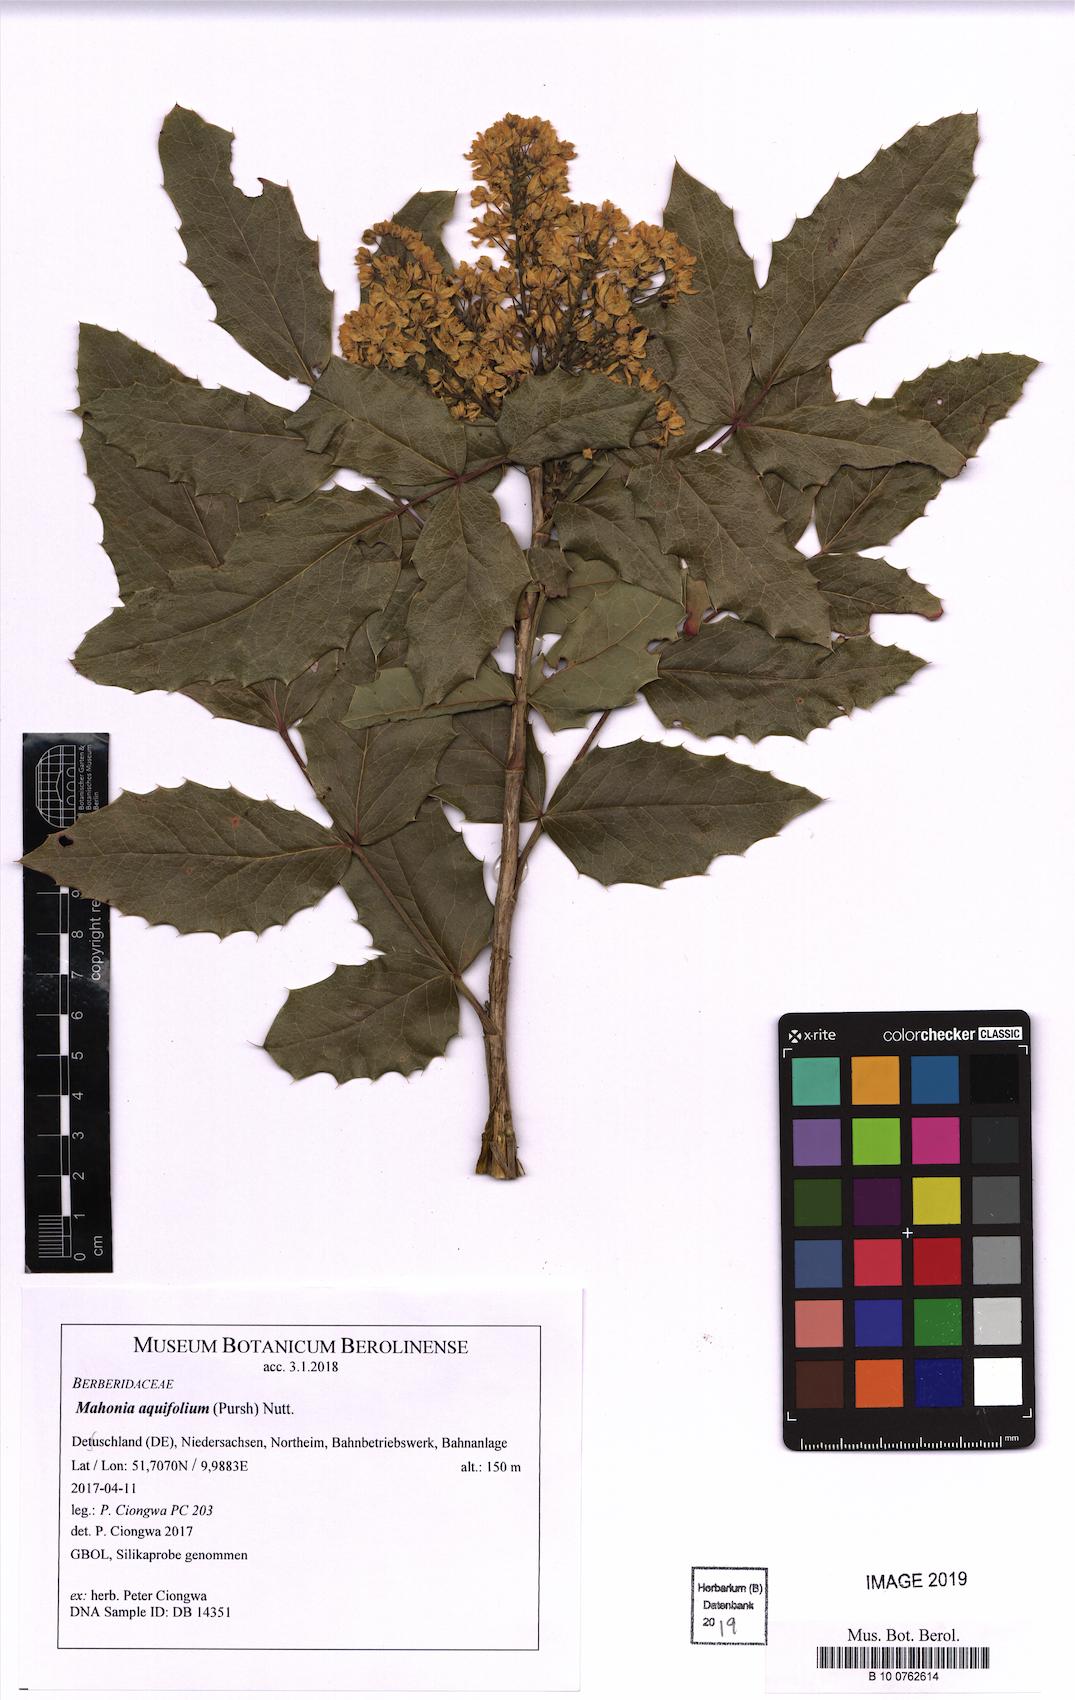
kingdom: Plantae
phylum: Tracheophyta
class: Magnoliopsida
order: Ranunculales
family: Berberidaceae
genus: Mahonia
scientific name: Mahonia aquifolium
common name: Oregon-grape
